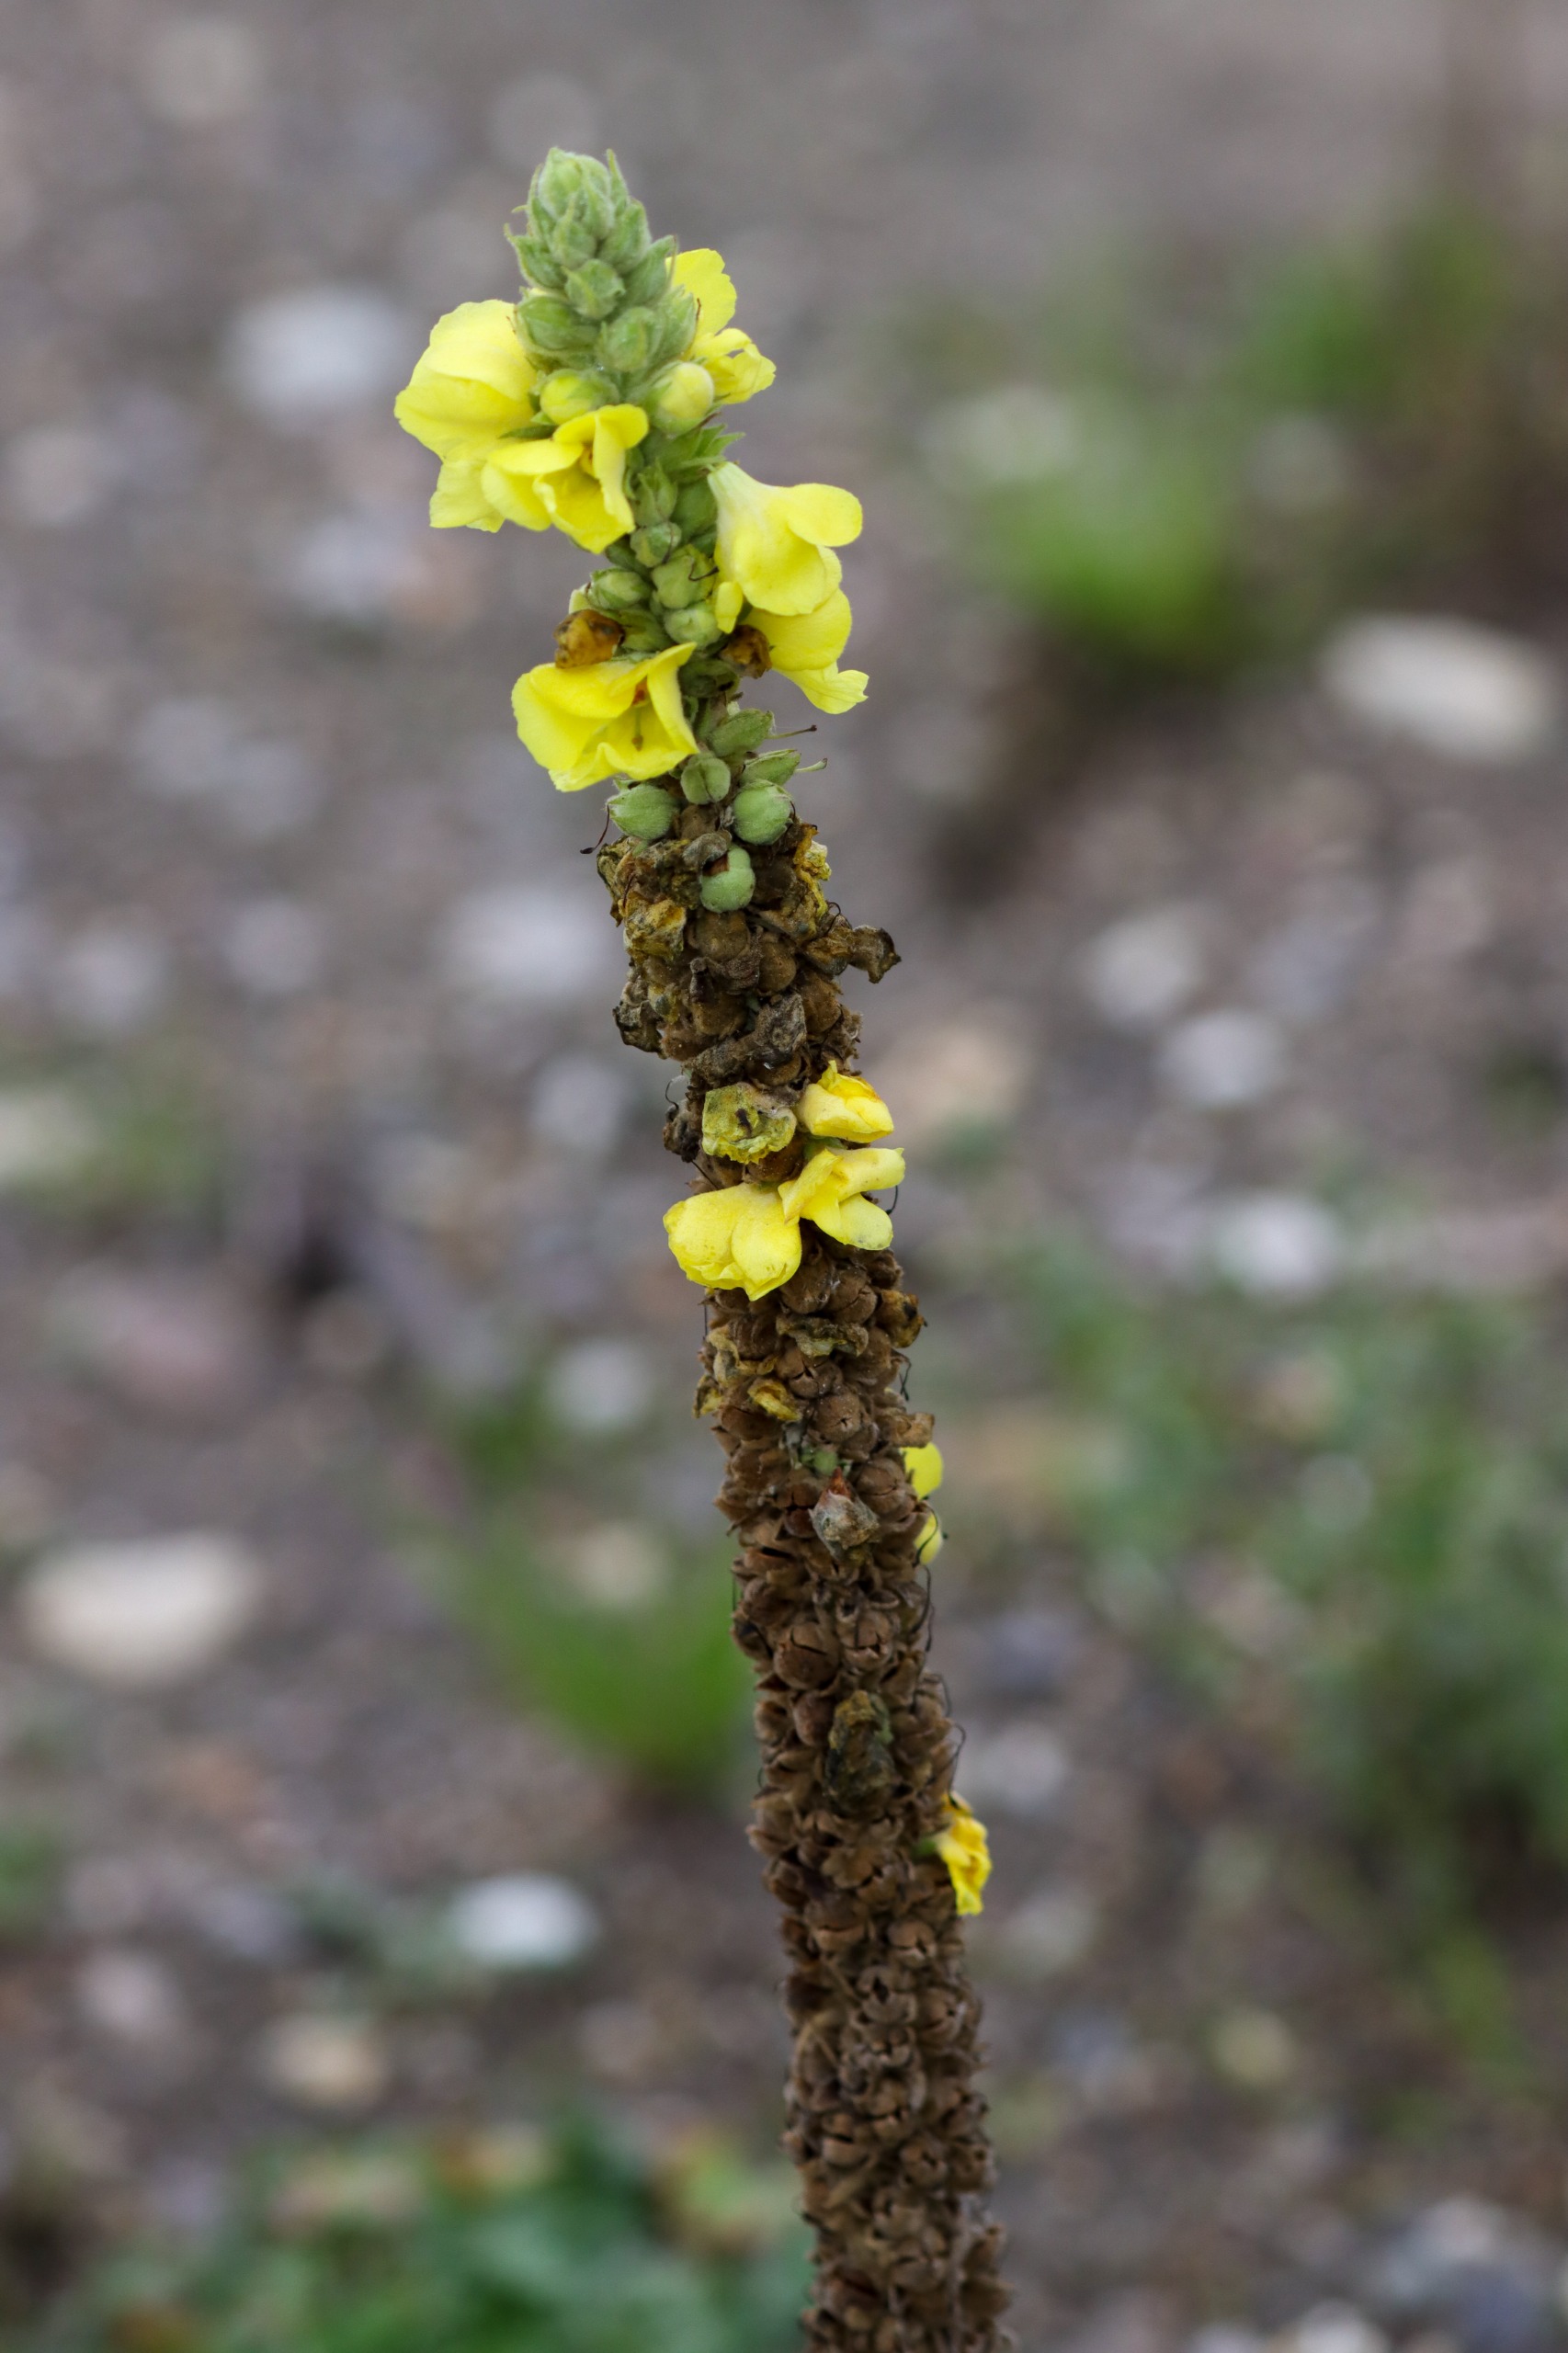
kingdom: Plantae
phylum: Tracheophyta
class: Magnoliopsida
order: Lamiales
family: Scrophulariaceae
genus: Verbascum
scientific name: Verbascum thapsus
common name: Filtbladet kongelys
